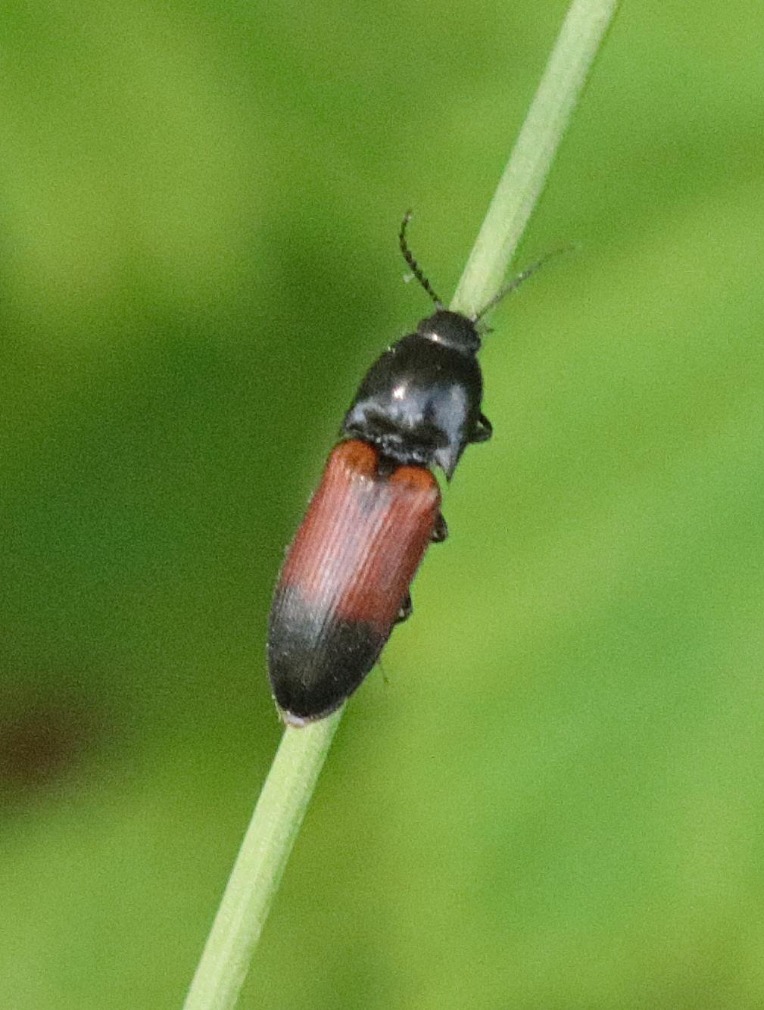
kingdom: Animalia
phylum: Arthropoda
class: Insecta
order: Coleoptera
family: Elateridae
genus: Ampedus
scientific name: Ampedus balteatus
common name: Tvefarvet skovsmælder
